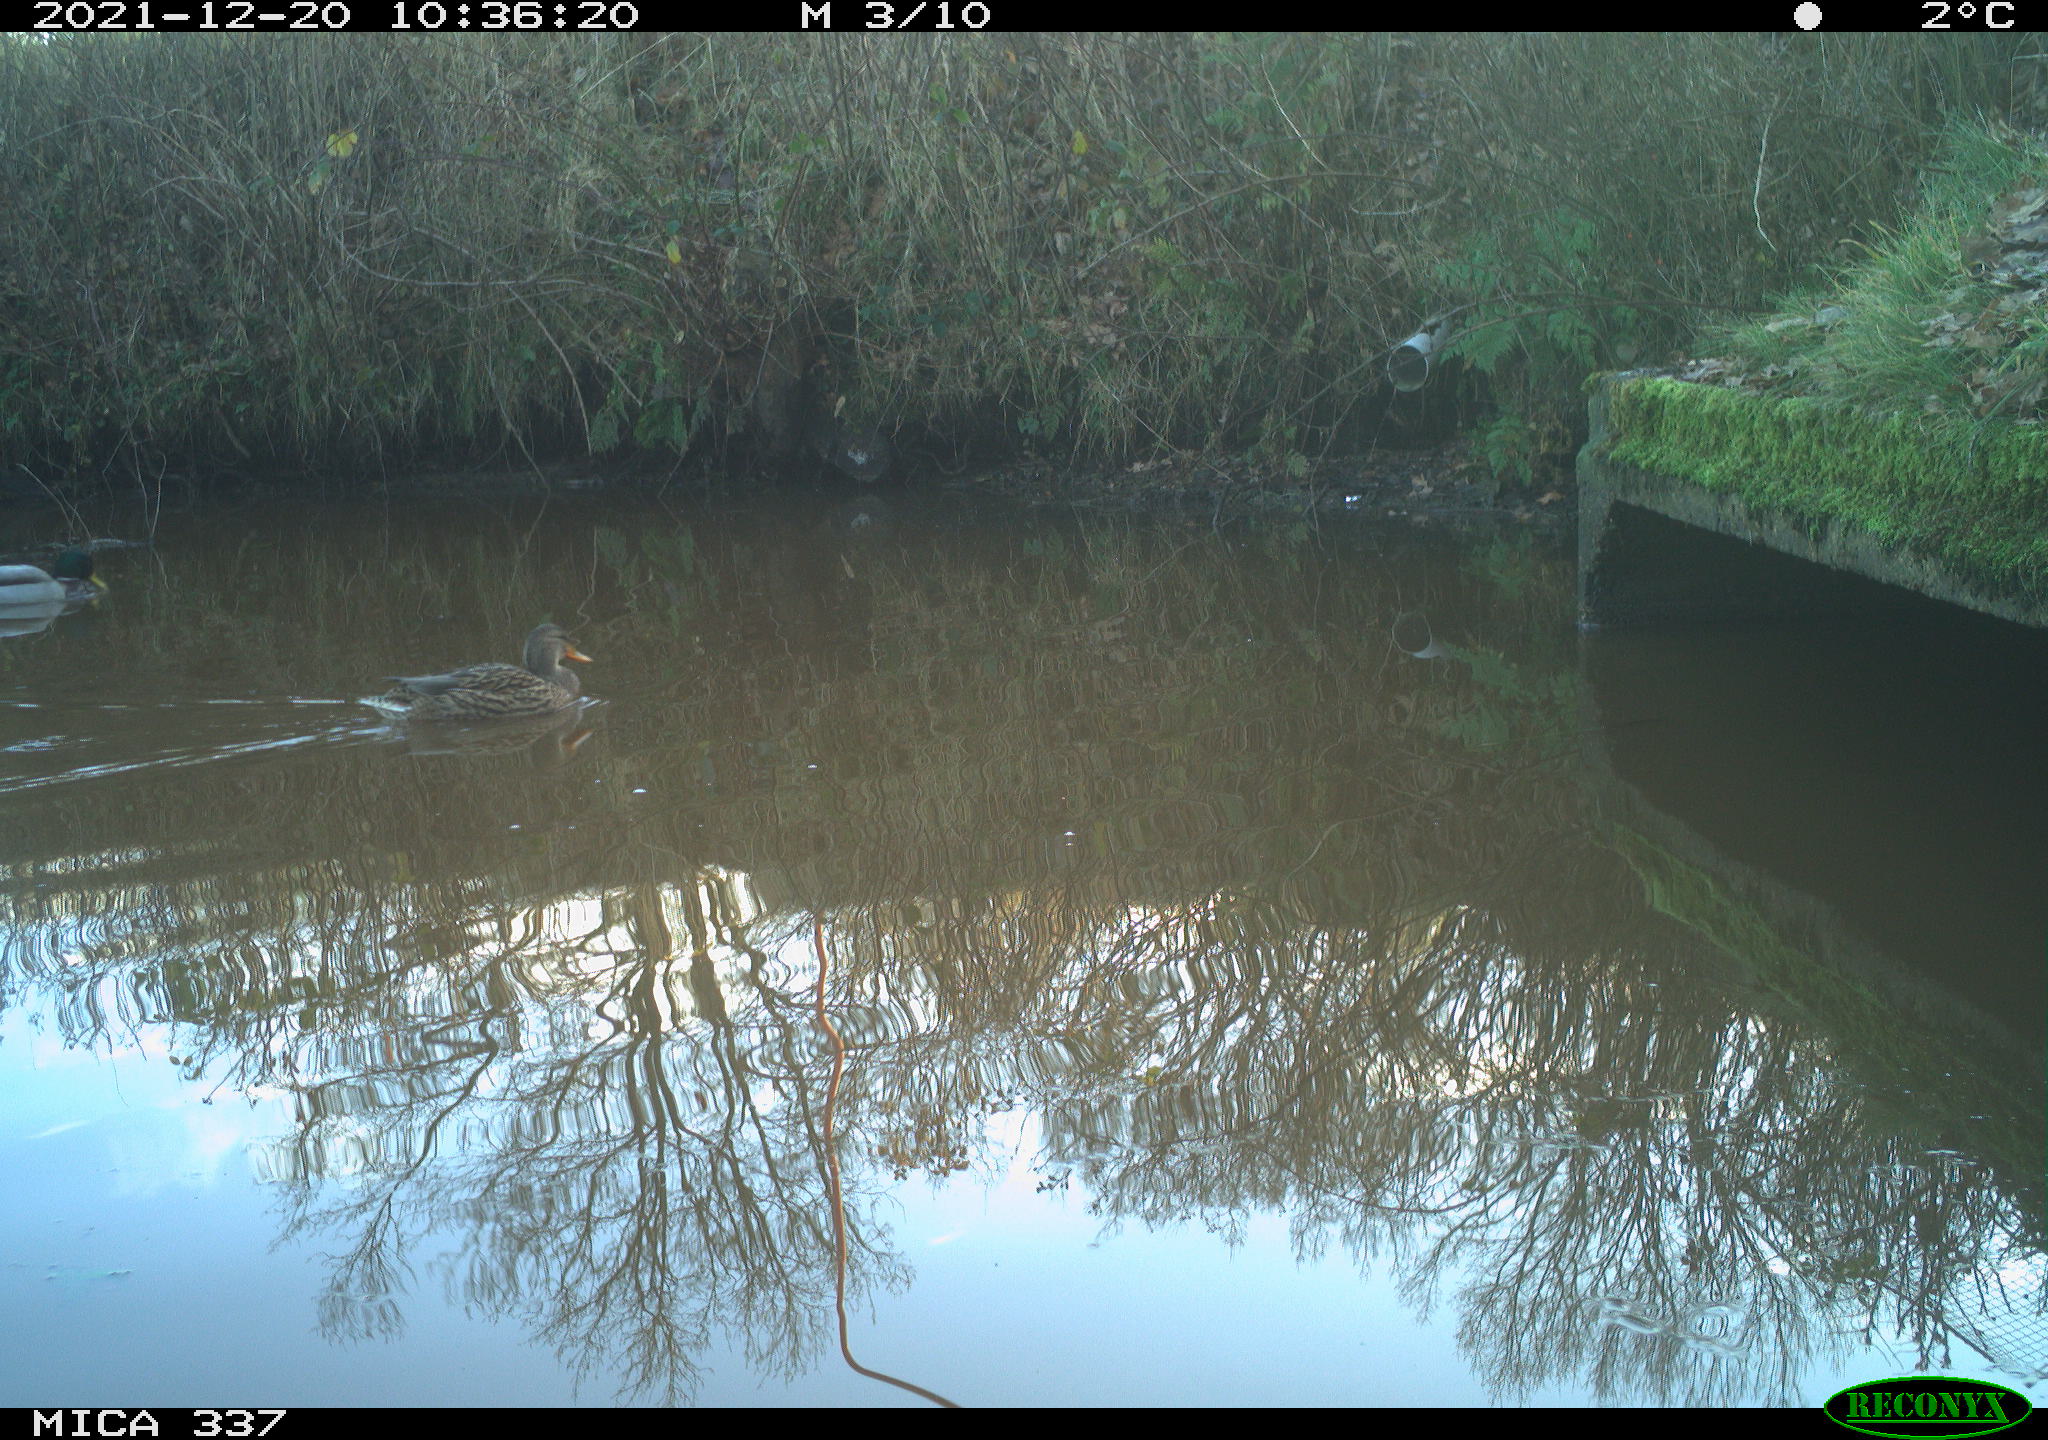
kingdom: Animalia
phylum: Chordata
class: Aves
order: Anseriformes
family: Anatidae
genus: Anas
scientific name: Anas platyrhynchos
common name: Mallard
